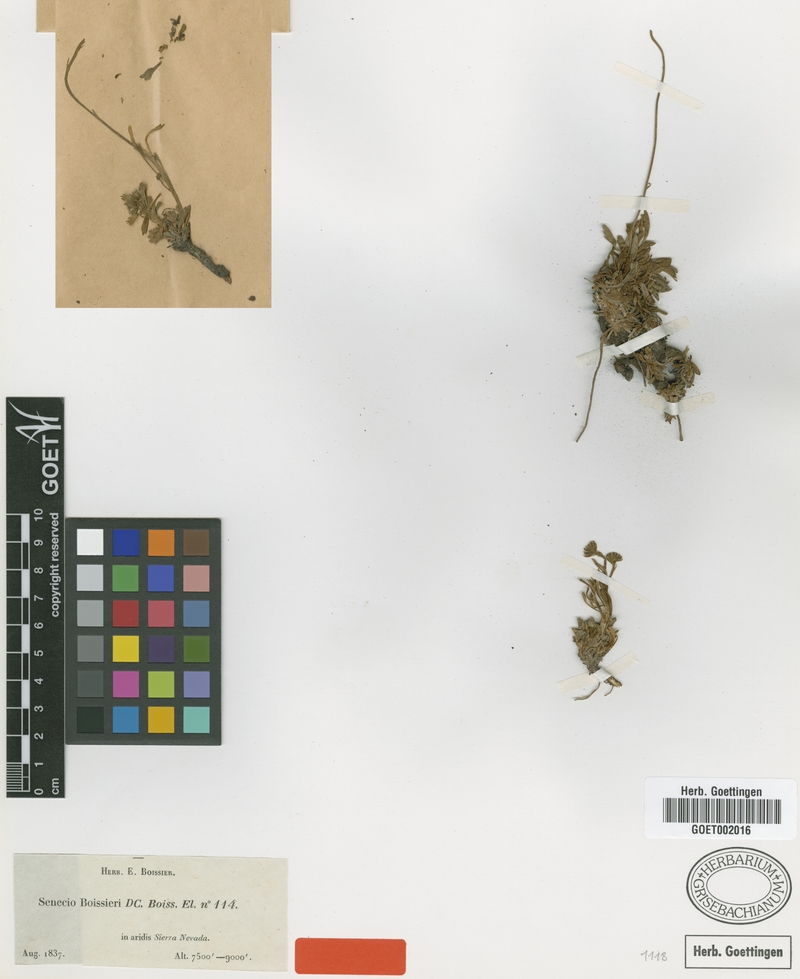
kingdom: Plantae
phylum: Tracheophyta
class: Magnoliopsida
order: Asterales
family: Asteraceae
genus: Jacobaea
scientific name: Jacobaea boissieri
